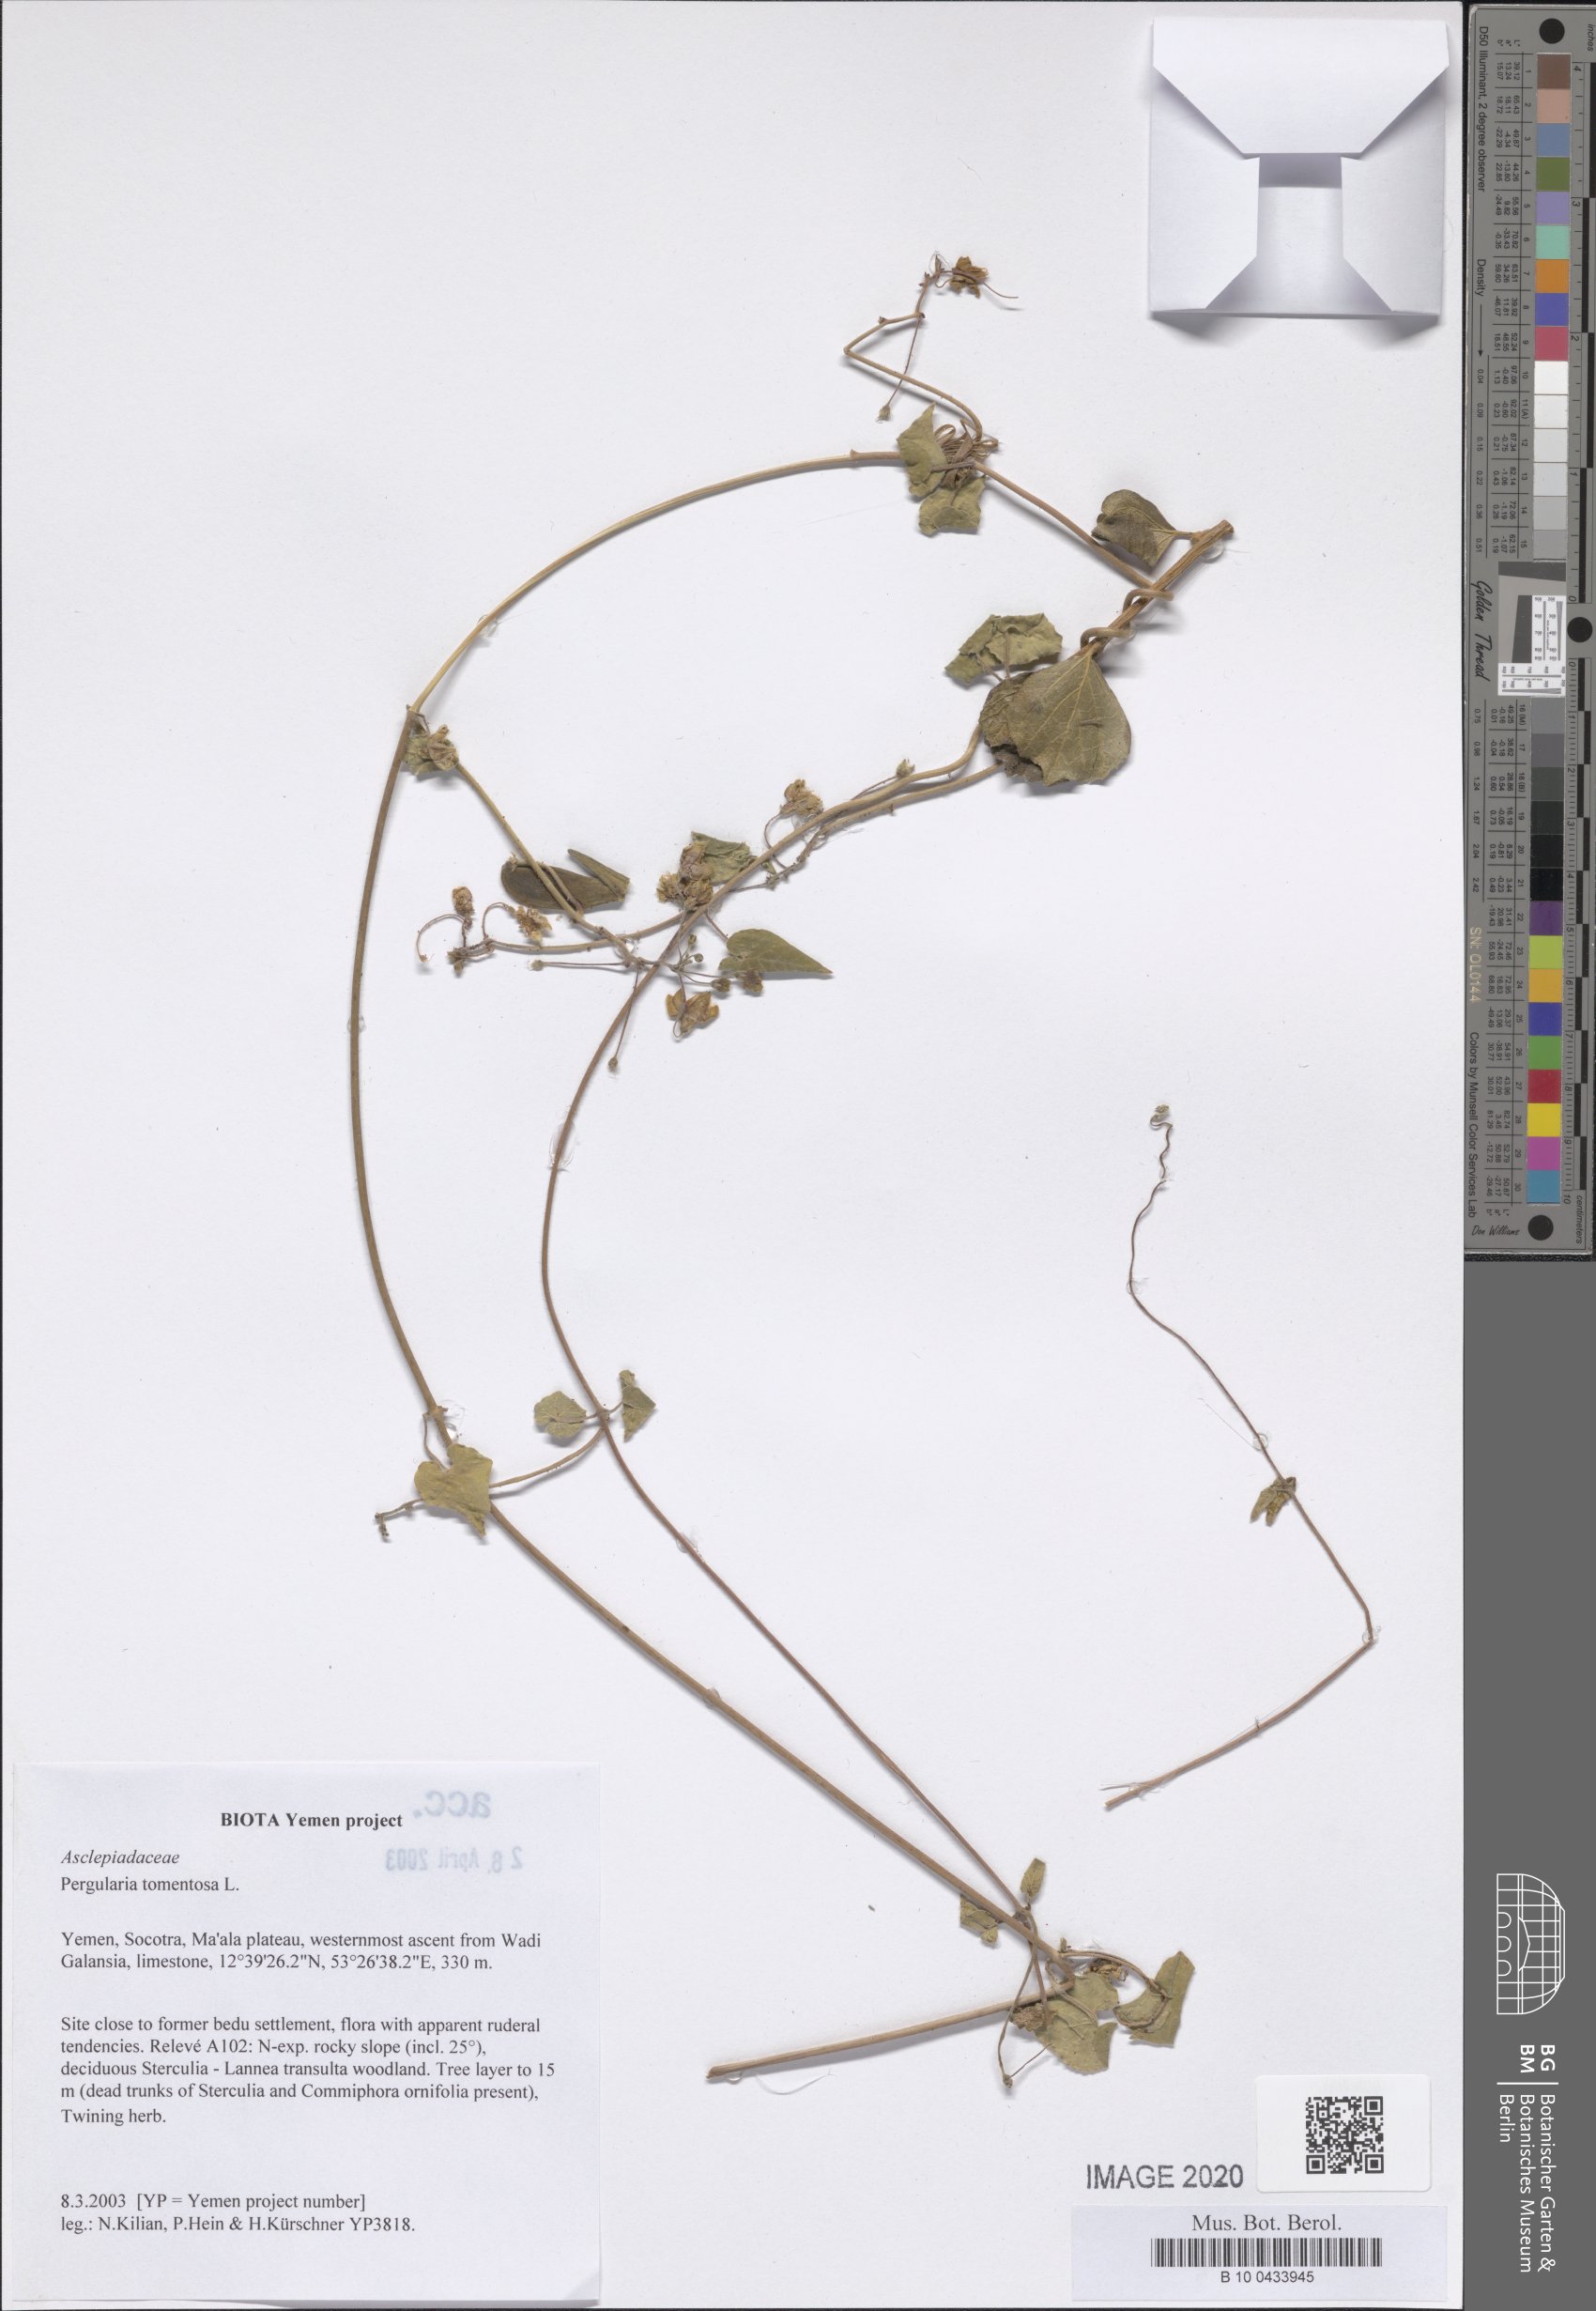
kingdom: Plantae
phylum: Tracheophyta
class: Magnoliopsida
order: Gentianales
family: Apocynaceae
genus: Pergularia
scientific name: Pergularia tomentosa
